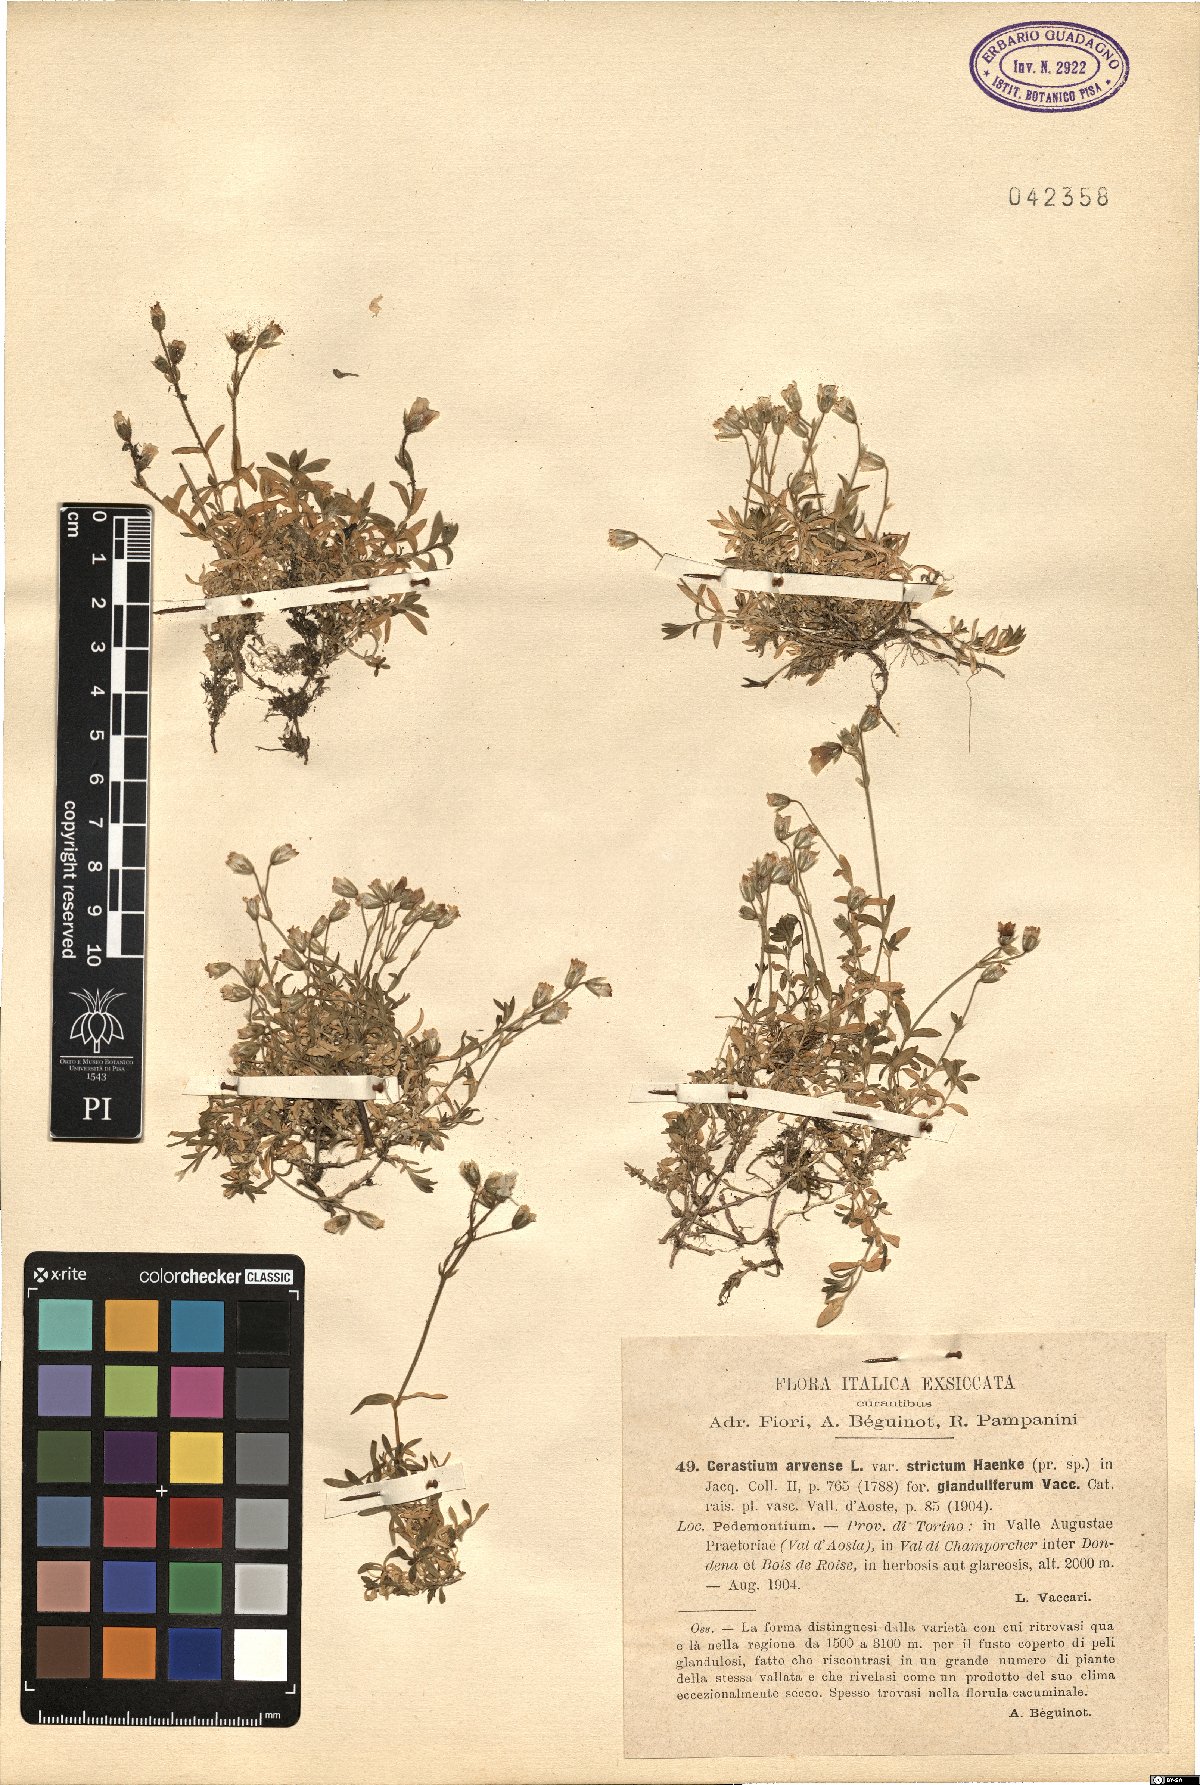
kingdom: Plantae
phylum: Tracheophyta
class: Magnoliopsida
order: Caryophyllales
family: Caryophyllaceae
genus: Cerastium
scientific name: Cerastium arvense
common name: Field mouse-ear
